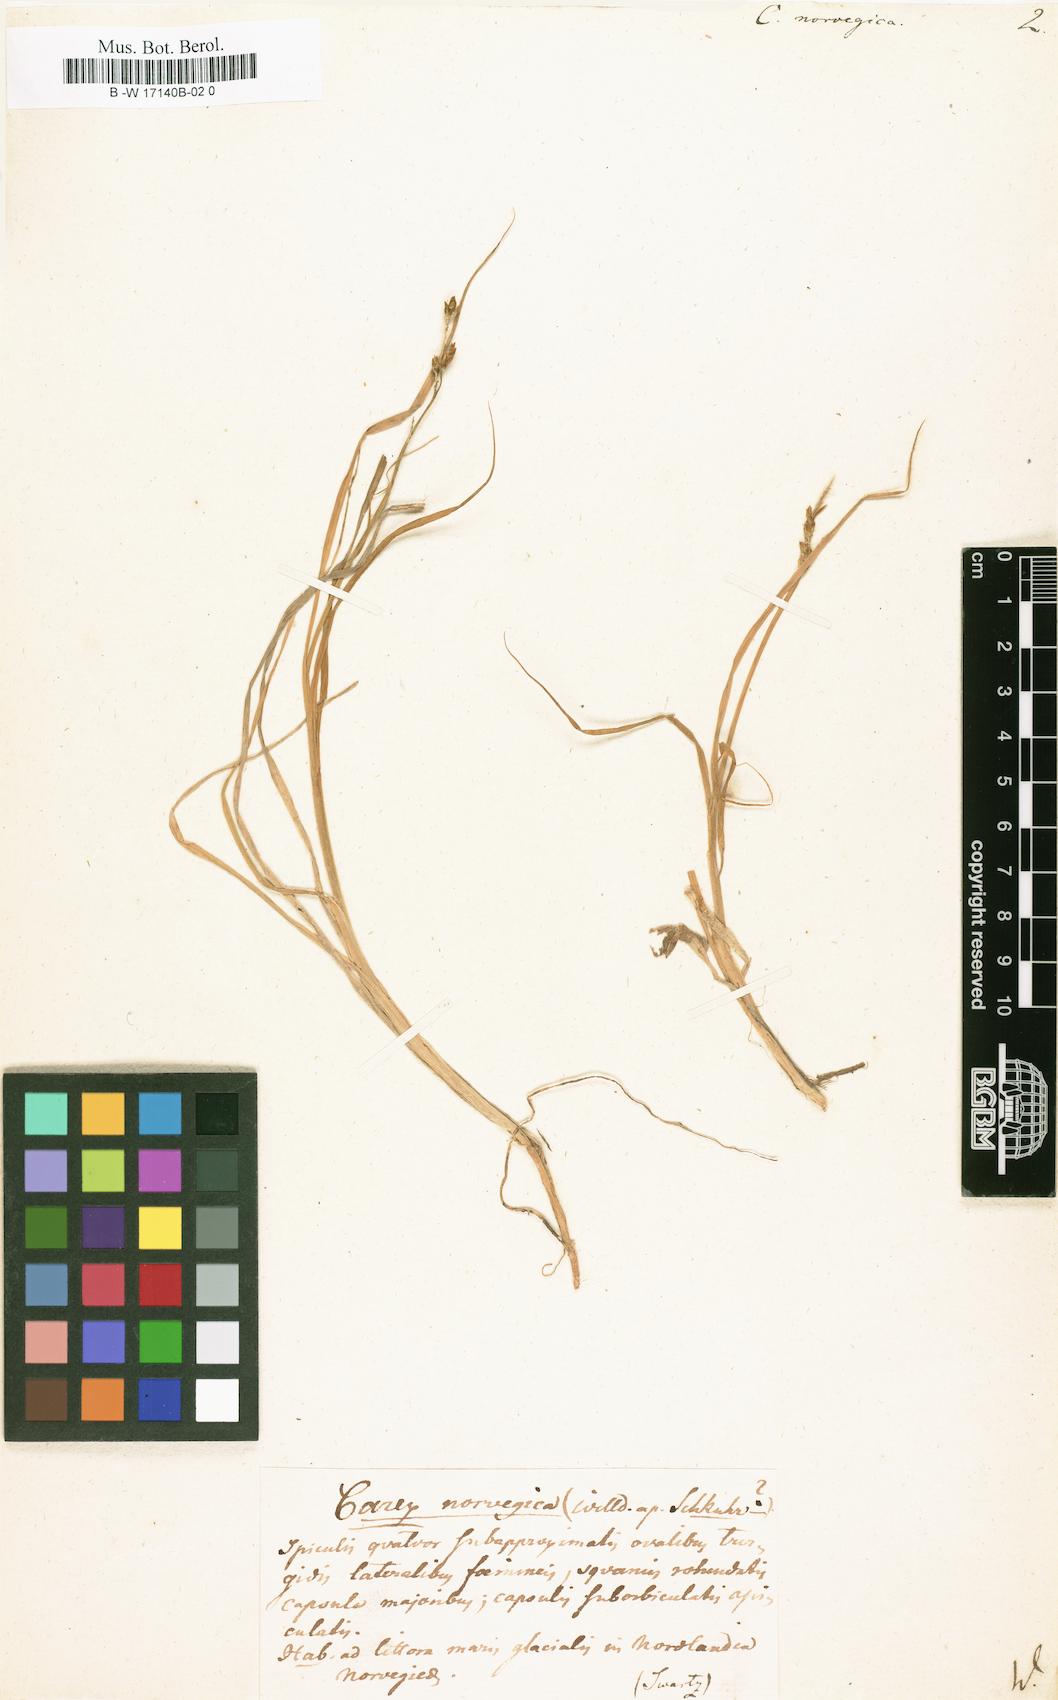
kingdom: Plantae
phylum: Tracheophyta
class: Liliopsida
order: Poales
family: Cyperaceae
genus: Carex
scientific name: Carex norvegica
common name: Close-headed alpine-sedge
